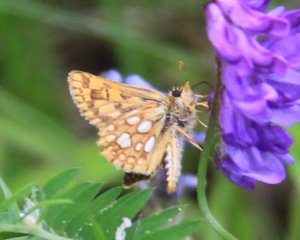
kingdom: Animalia
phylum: Arthropoda
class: Insecta
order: Lepidoptera
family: Hesperiidae
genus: Carterocephalus
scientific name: Carterocephalus palaemon
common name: Chequered Skipper
